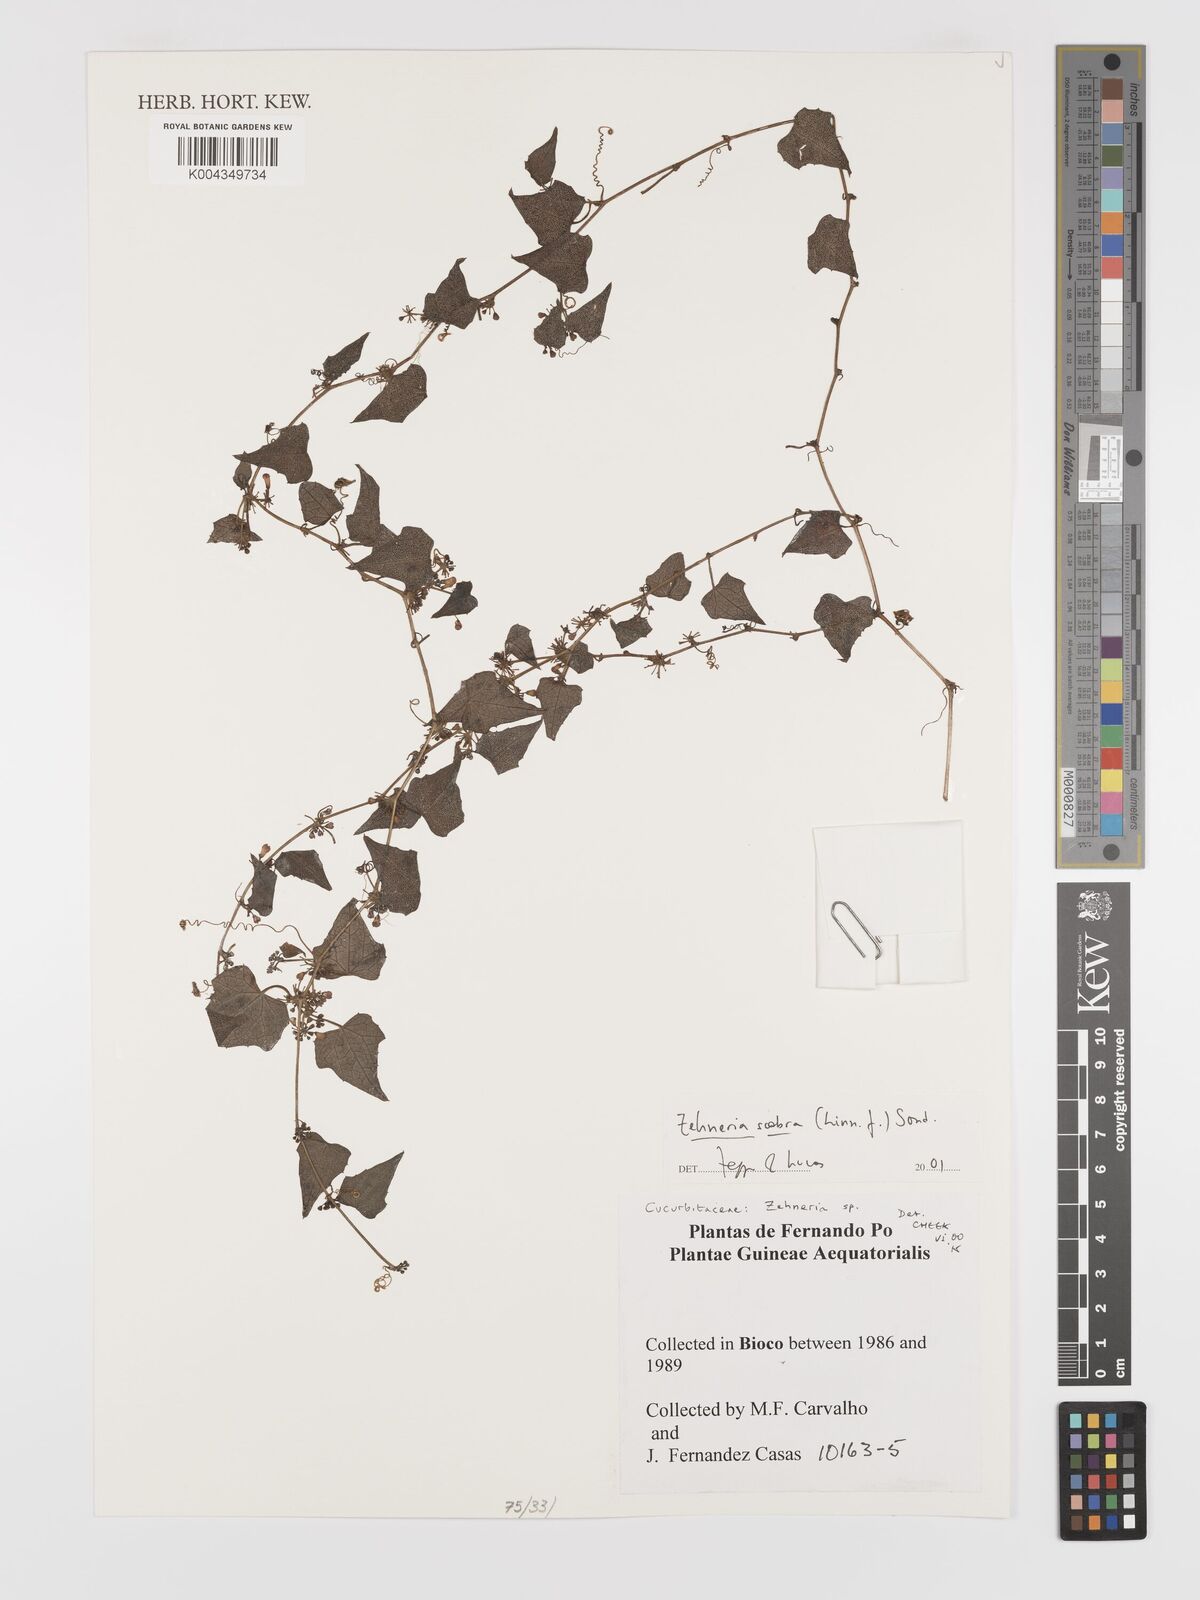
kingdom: Plantae
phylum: Tracheophyta
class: Magnoliopsida
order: Cucurbitales
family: Cucurbitaceae
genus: Zehneria
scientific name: Zehneria scabra
